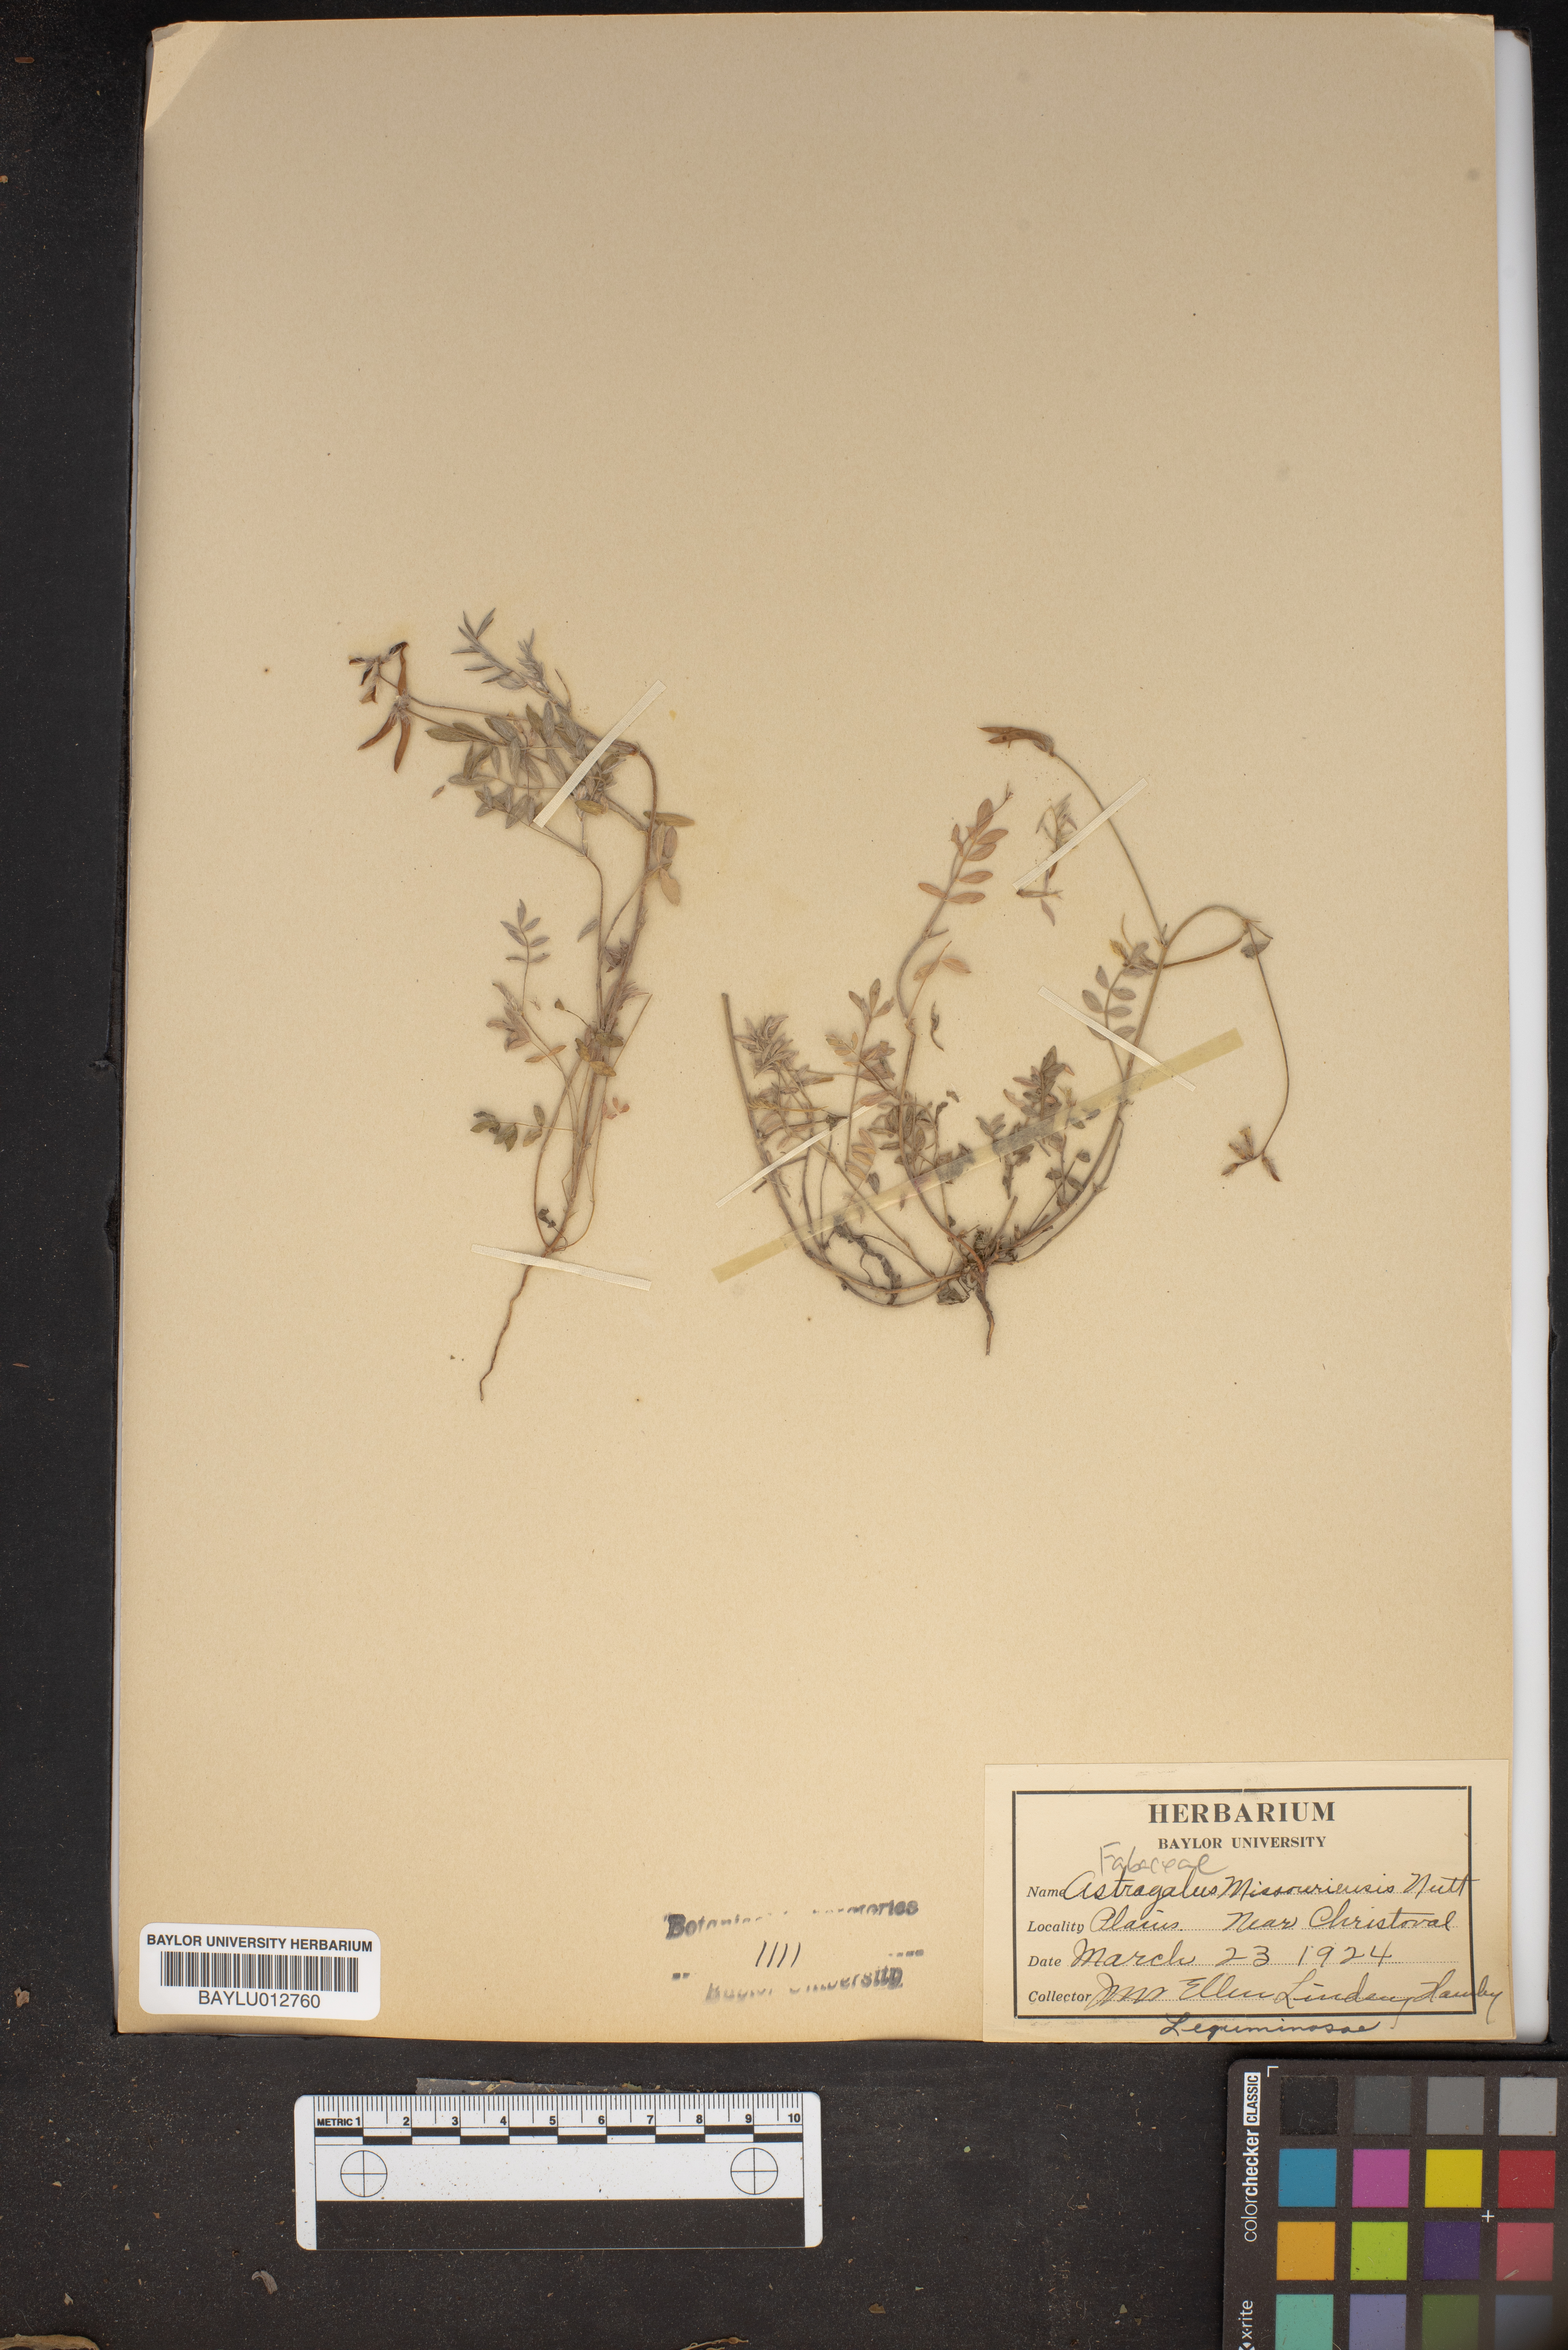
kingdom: Plantae
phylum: Tracheophyta
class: Magnoliopsida
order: Fabales
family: Fabaceae
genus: Astragalus
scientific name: Astragalus missouriensis
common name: Missouri milk-vetch
